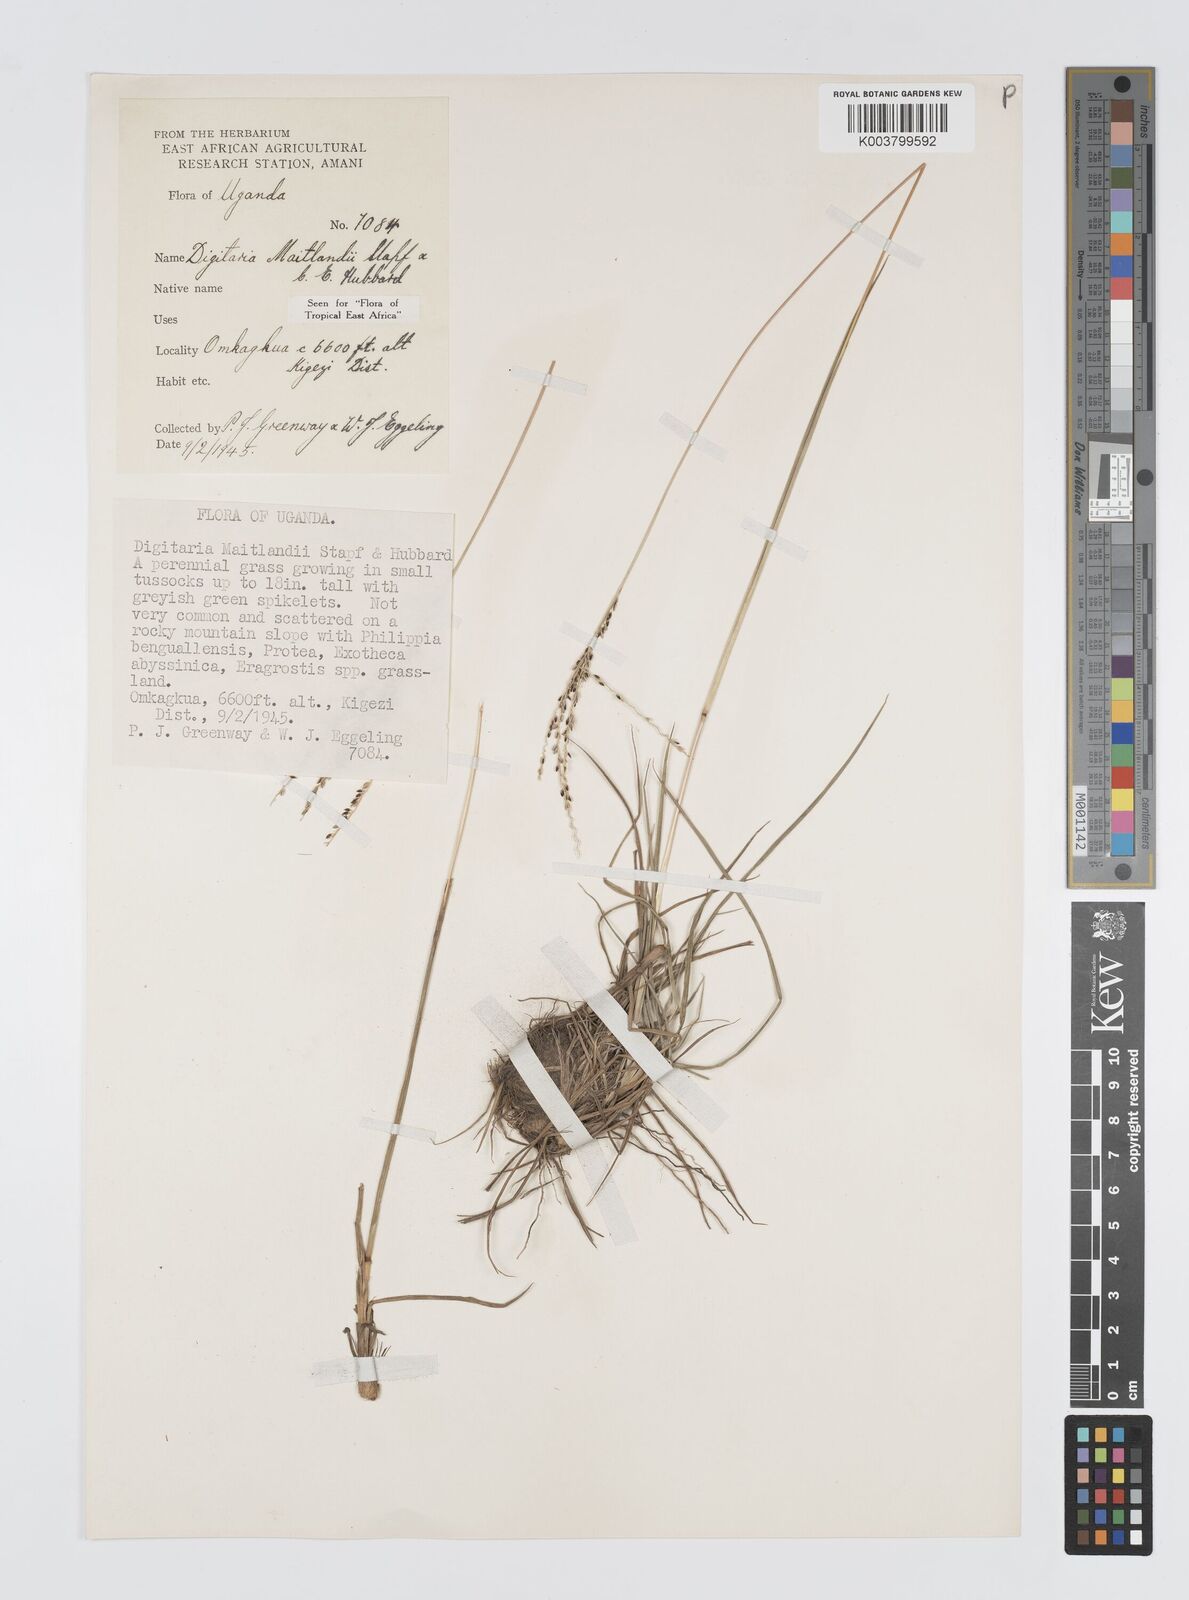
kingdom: Plantae
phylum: Tracheophyta
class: Liliopsida
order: Poales
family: Poaceae
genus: Digitaria
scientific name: Digitaria maitlandii
